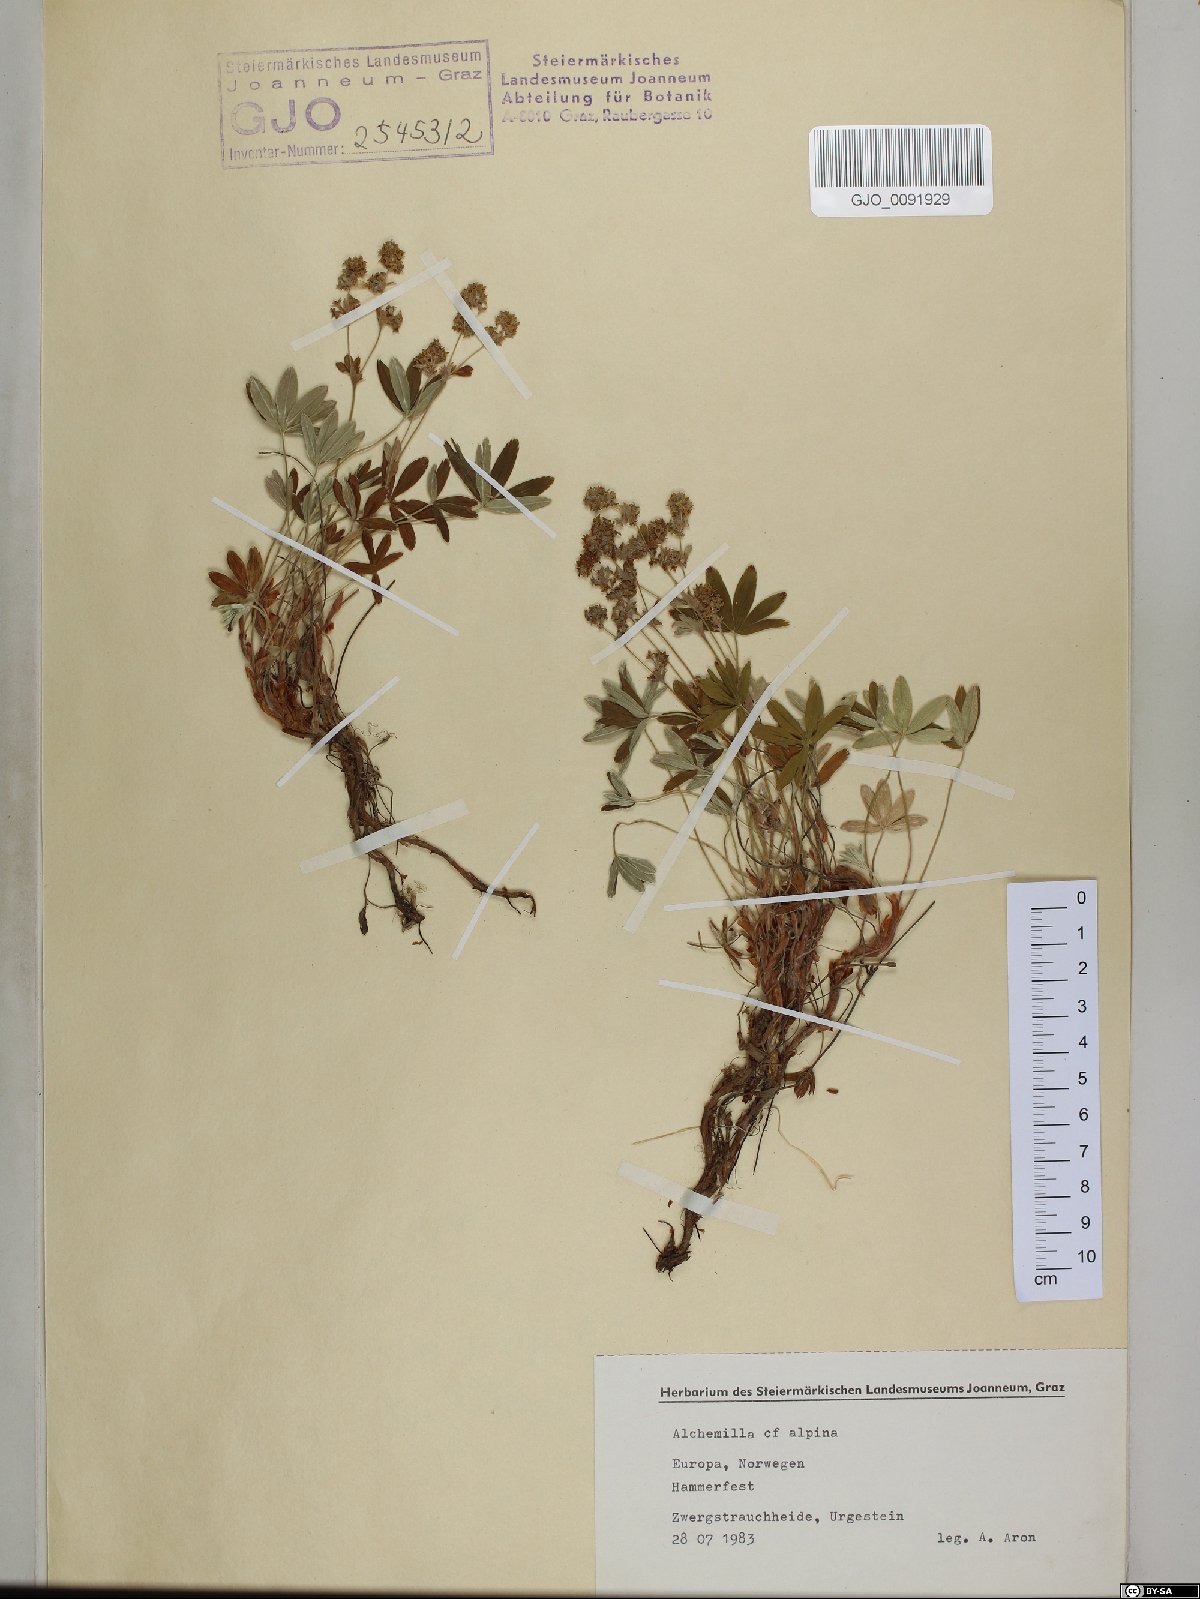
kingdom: Plantae
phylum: Tracheophyta
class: Magnoliopsida
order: Rosales
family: Rosaceae
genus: Alchemilla
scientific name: Alchemilla alpina
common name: Alpine lady's-mantle
